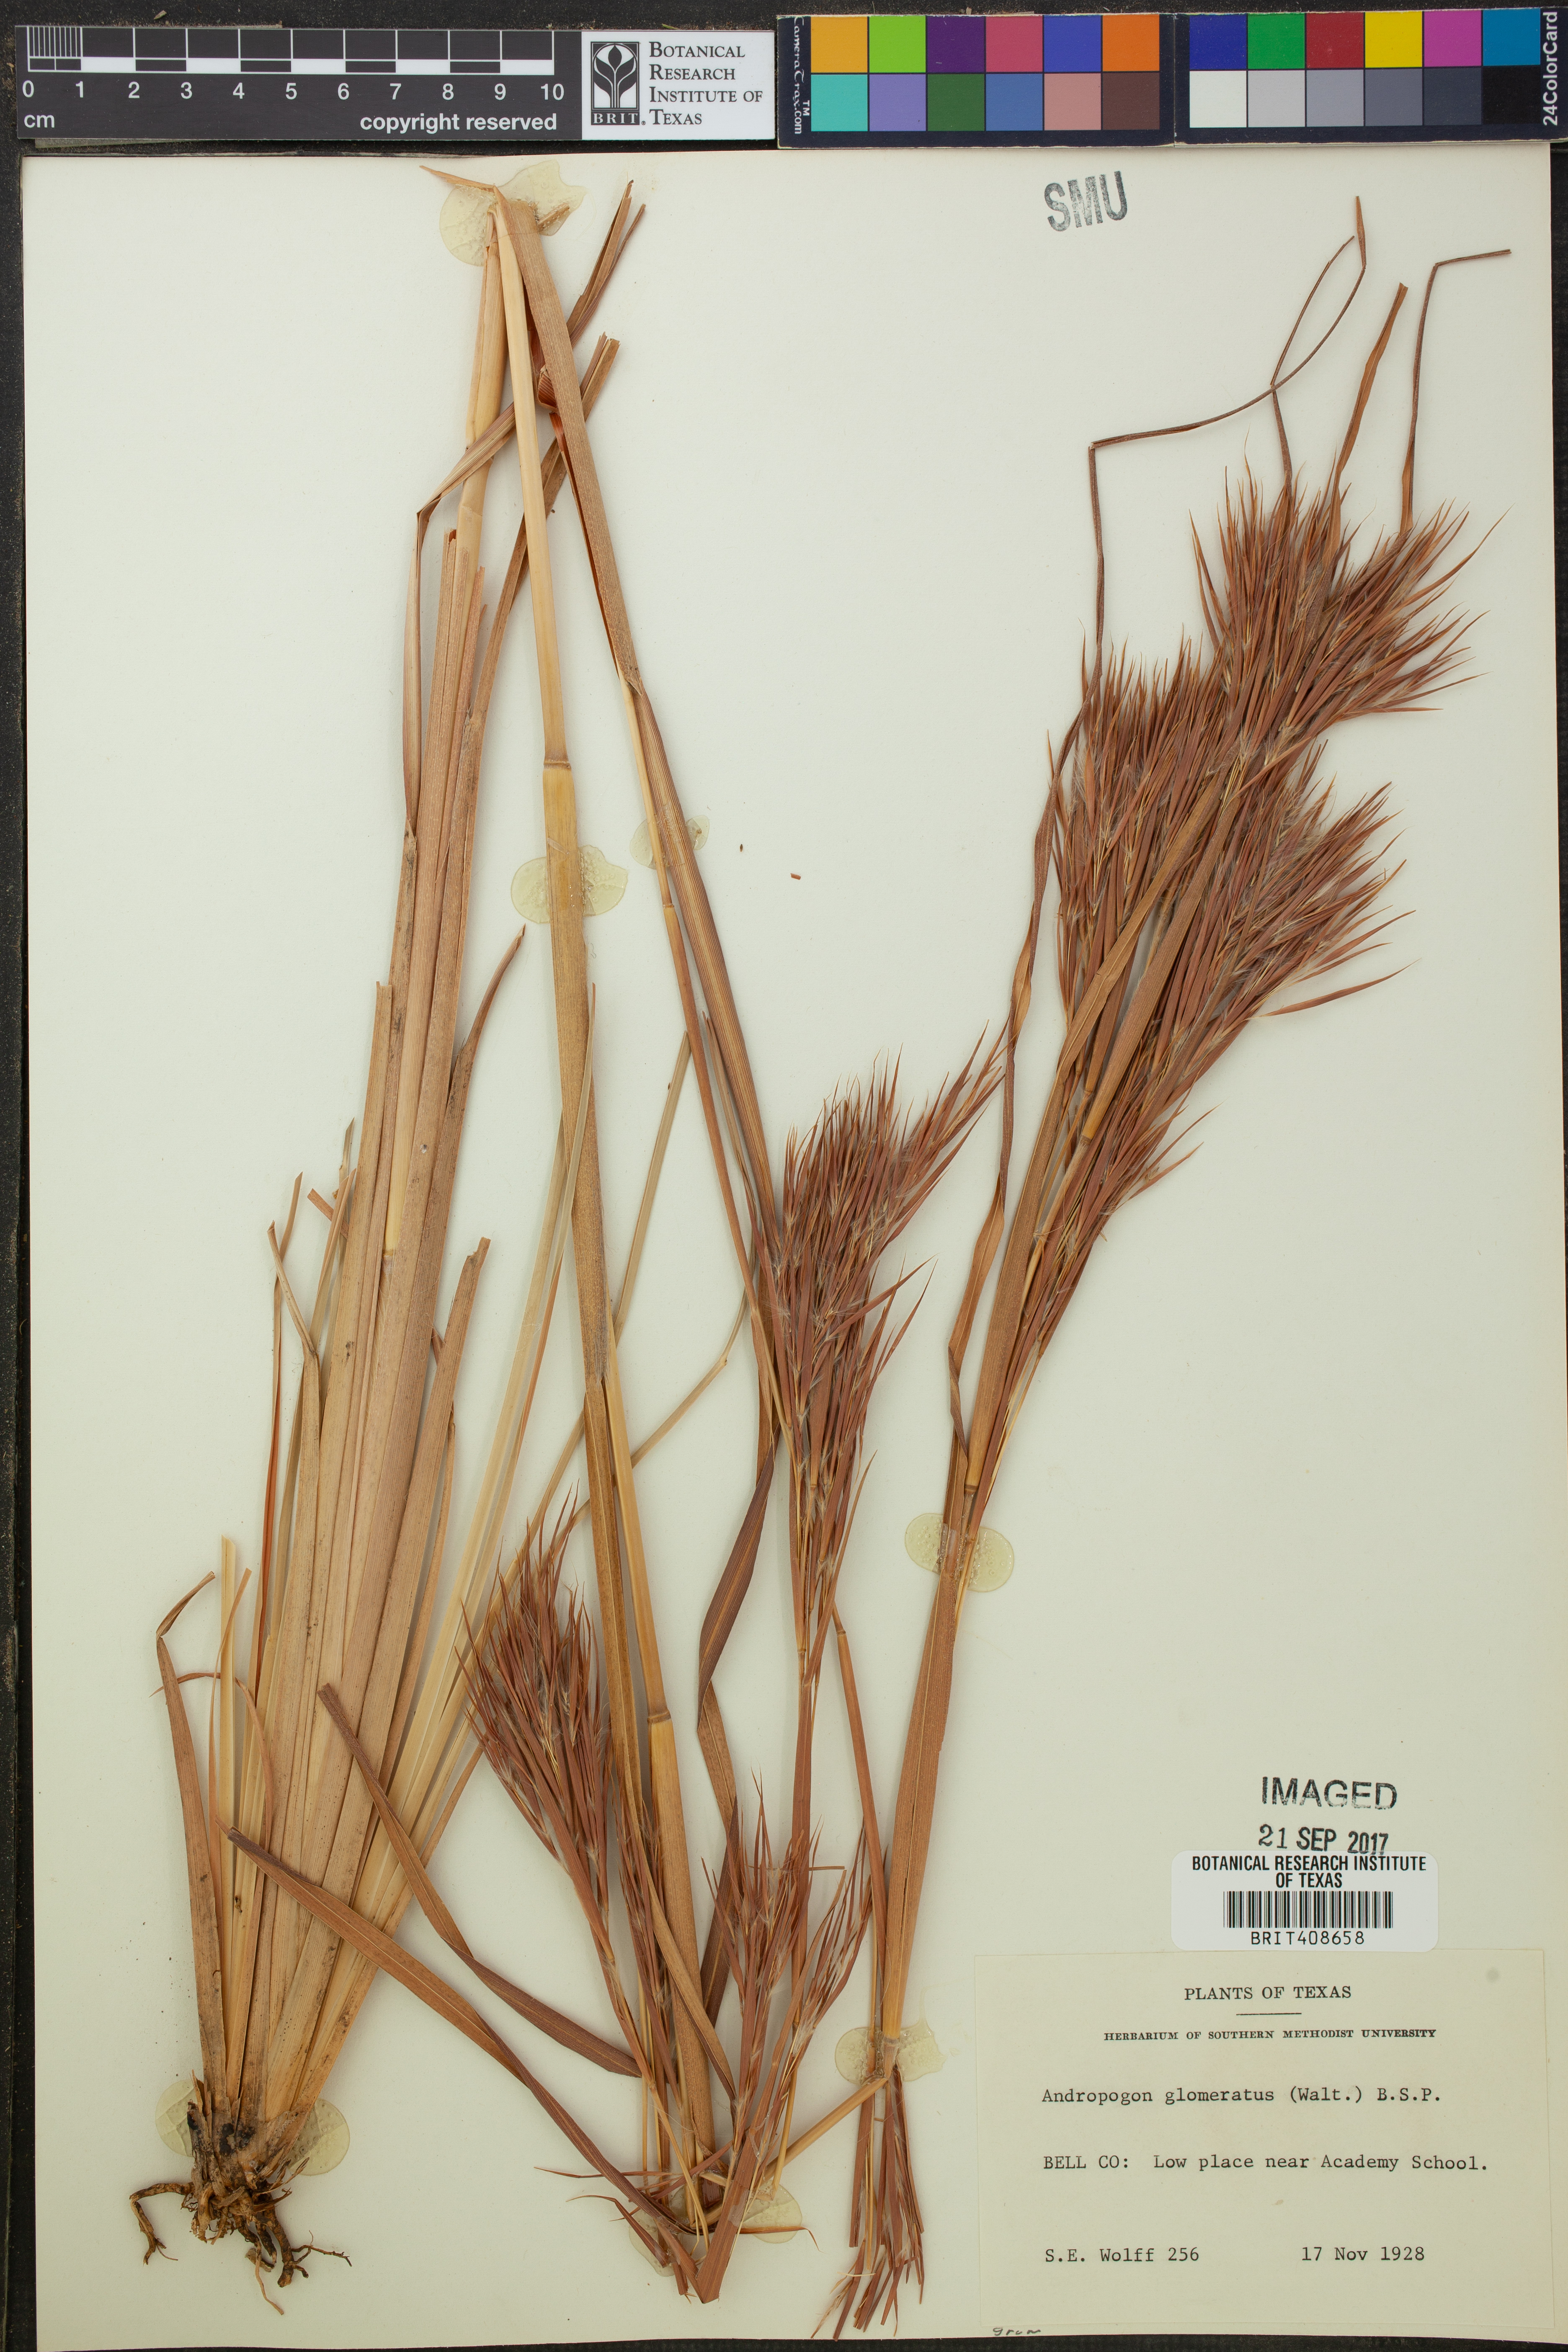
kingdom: Plantae
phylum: Tracheophyta
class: Liliopsida
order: Poales
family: Poaceae
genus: Andropogon
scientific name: Andropogon glomeratus
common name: Bushy beard grass
